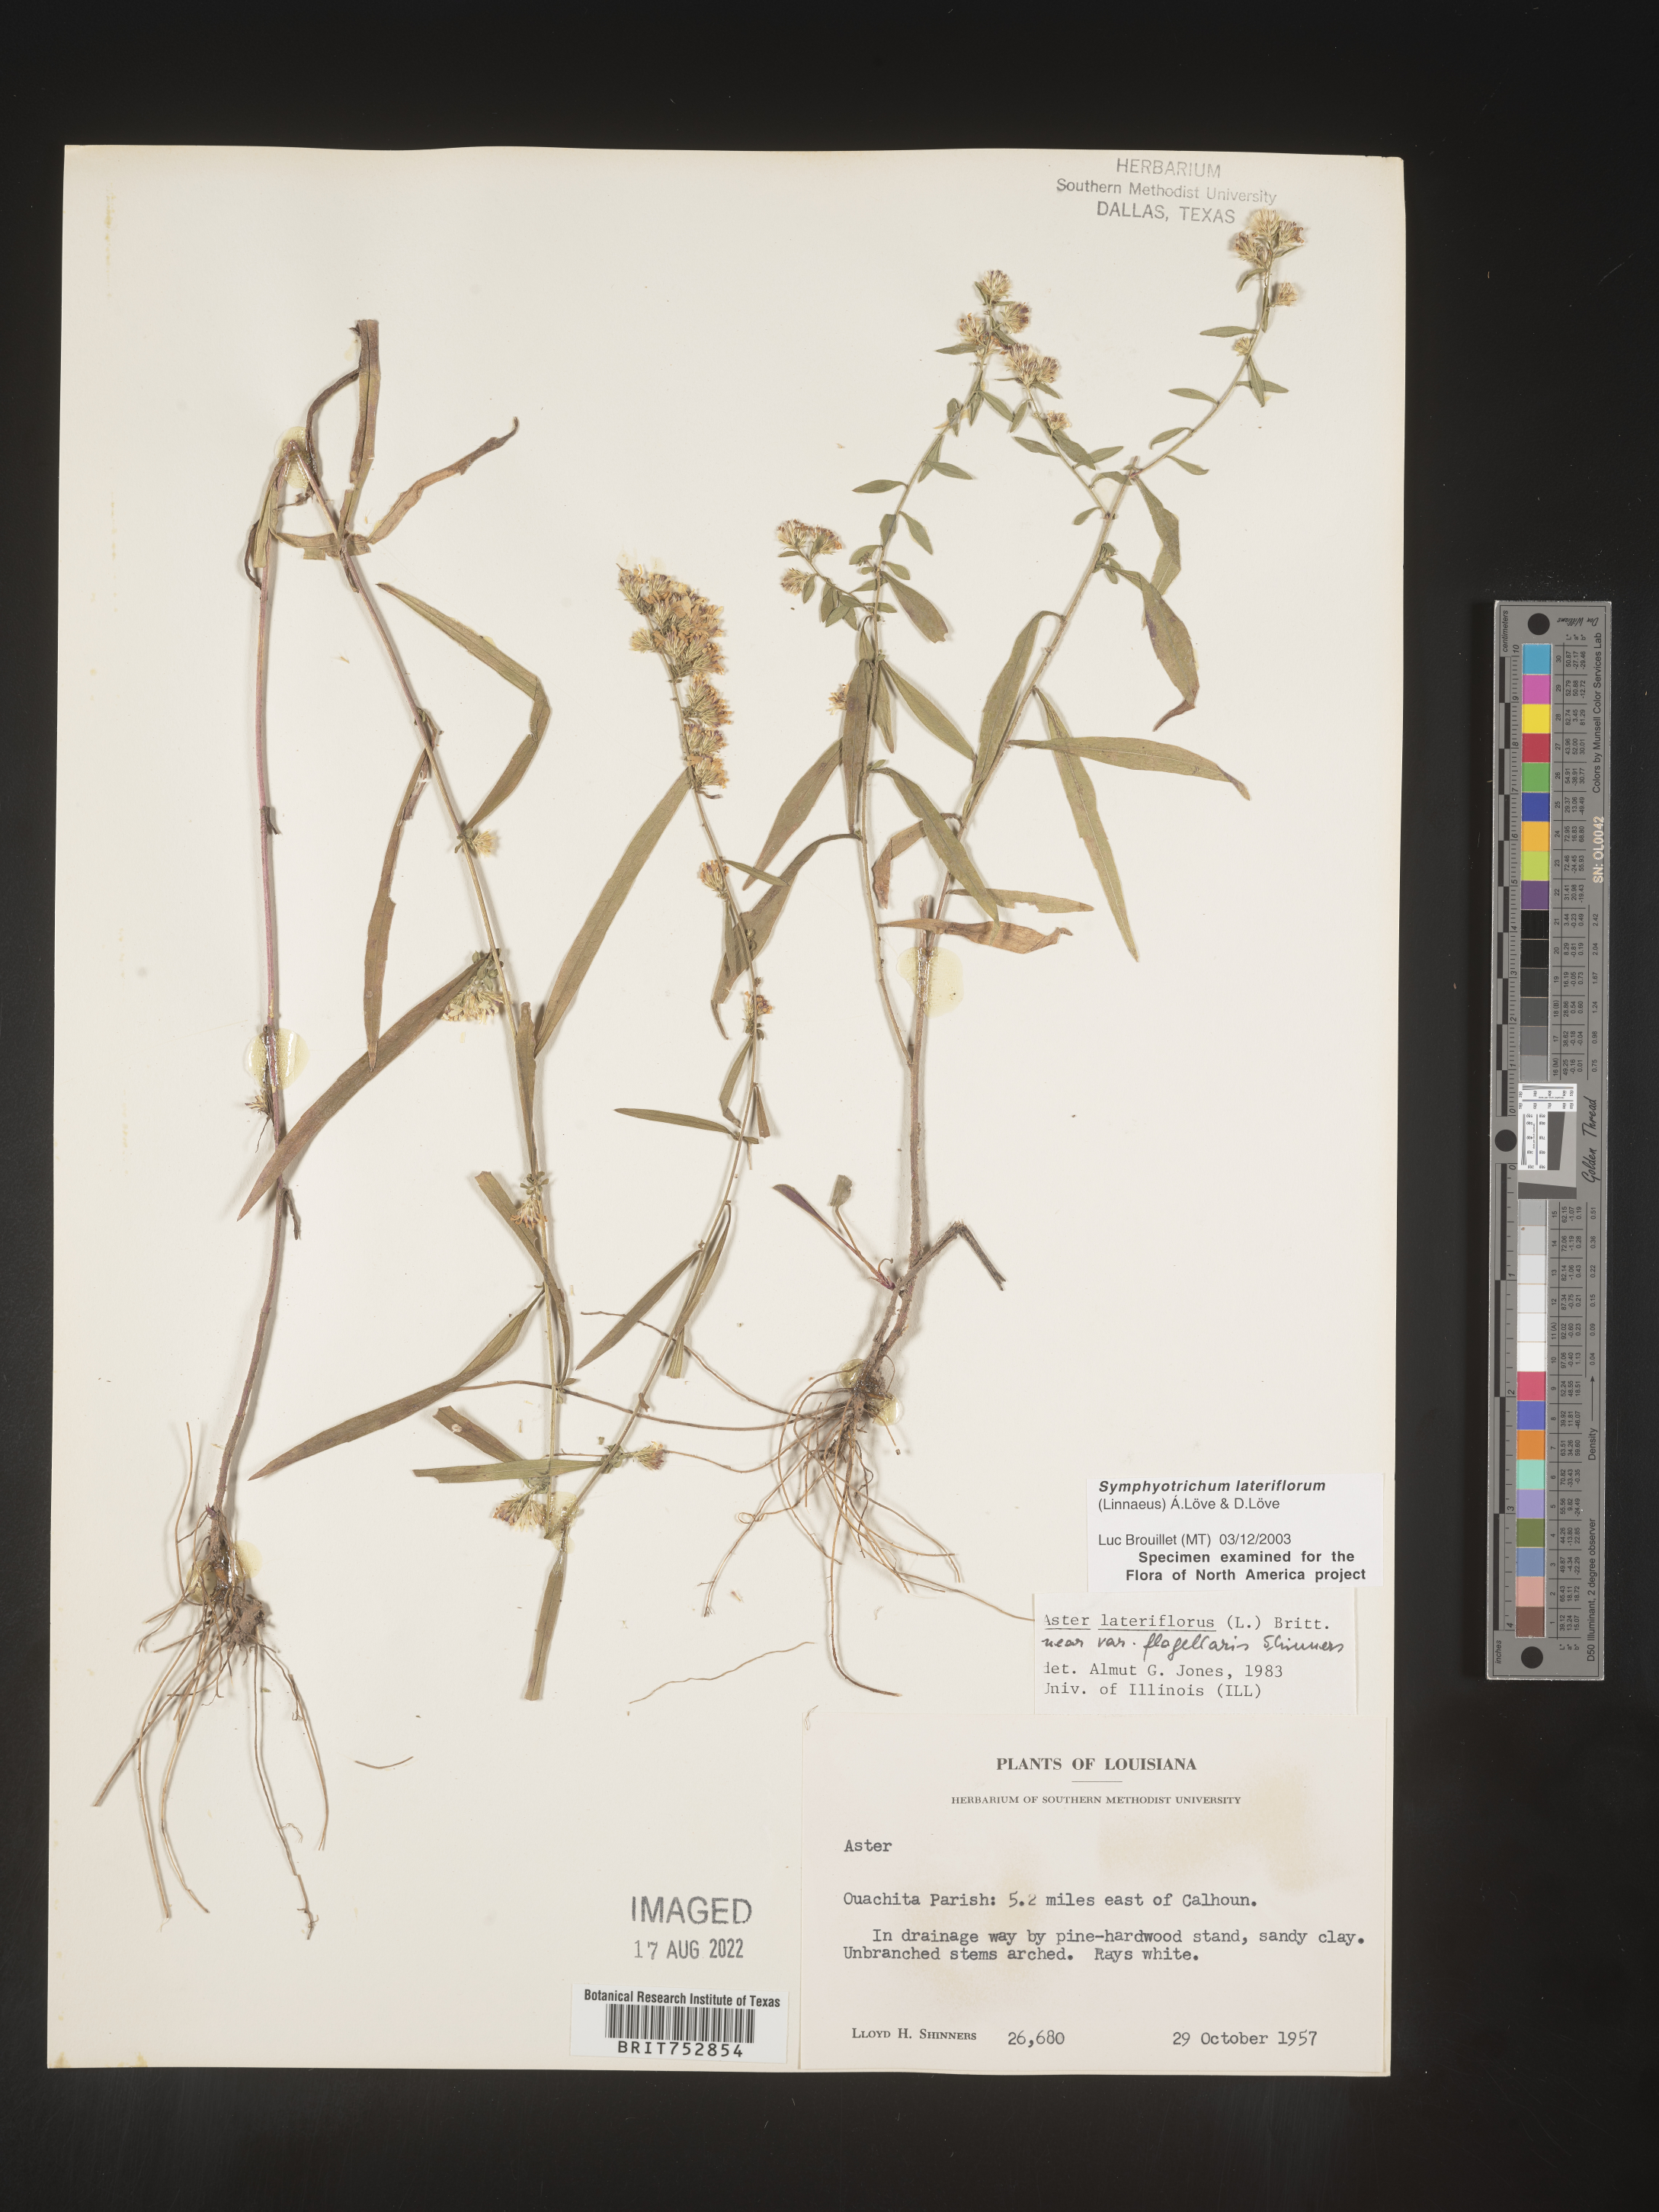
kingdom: Plantae
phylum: Tracheophyta
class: Magnoliopsida
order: Asterales
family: Asteraceae
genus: Symphyotrichum
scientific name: Symphyotrichum lateriflorum
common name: Calico aster
